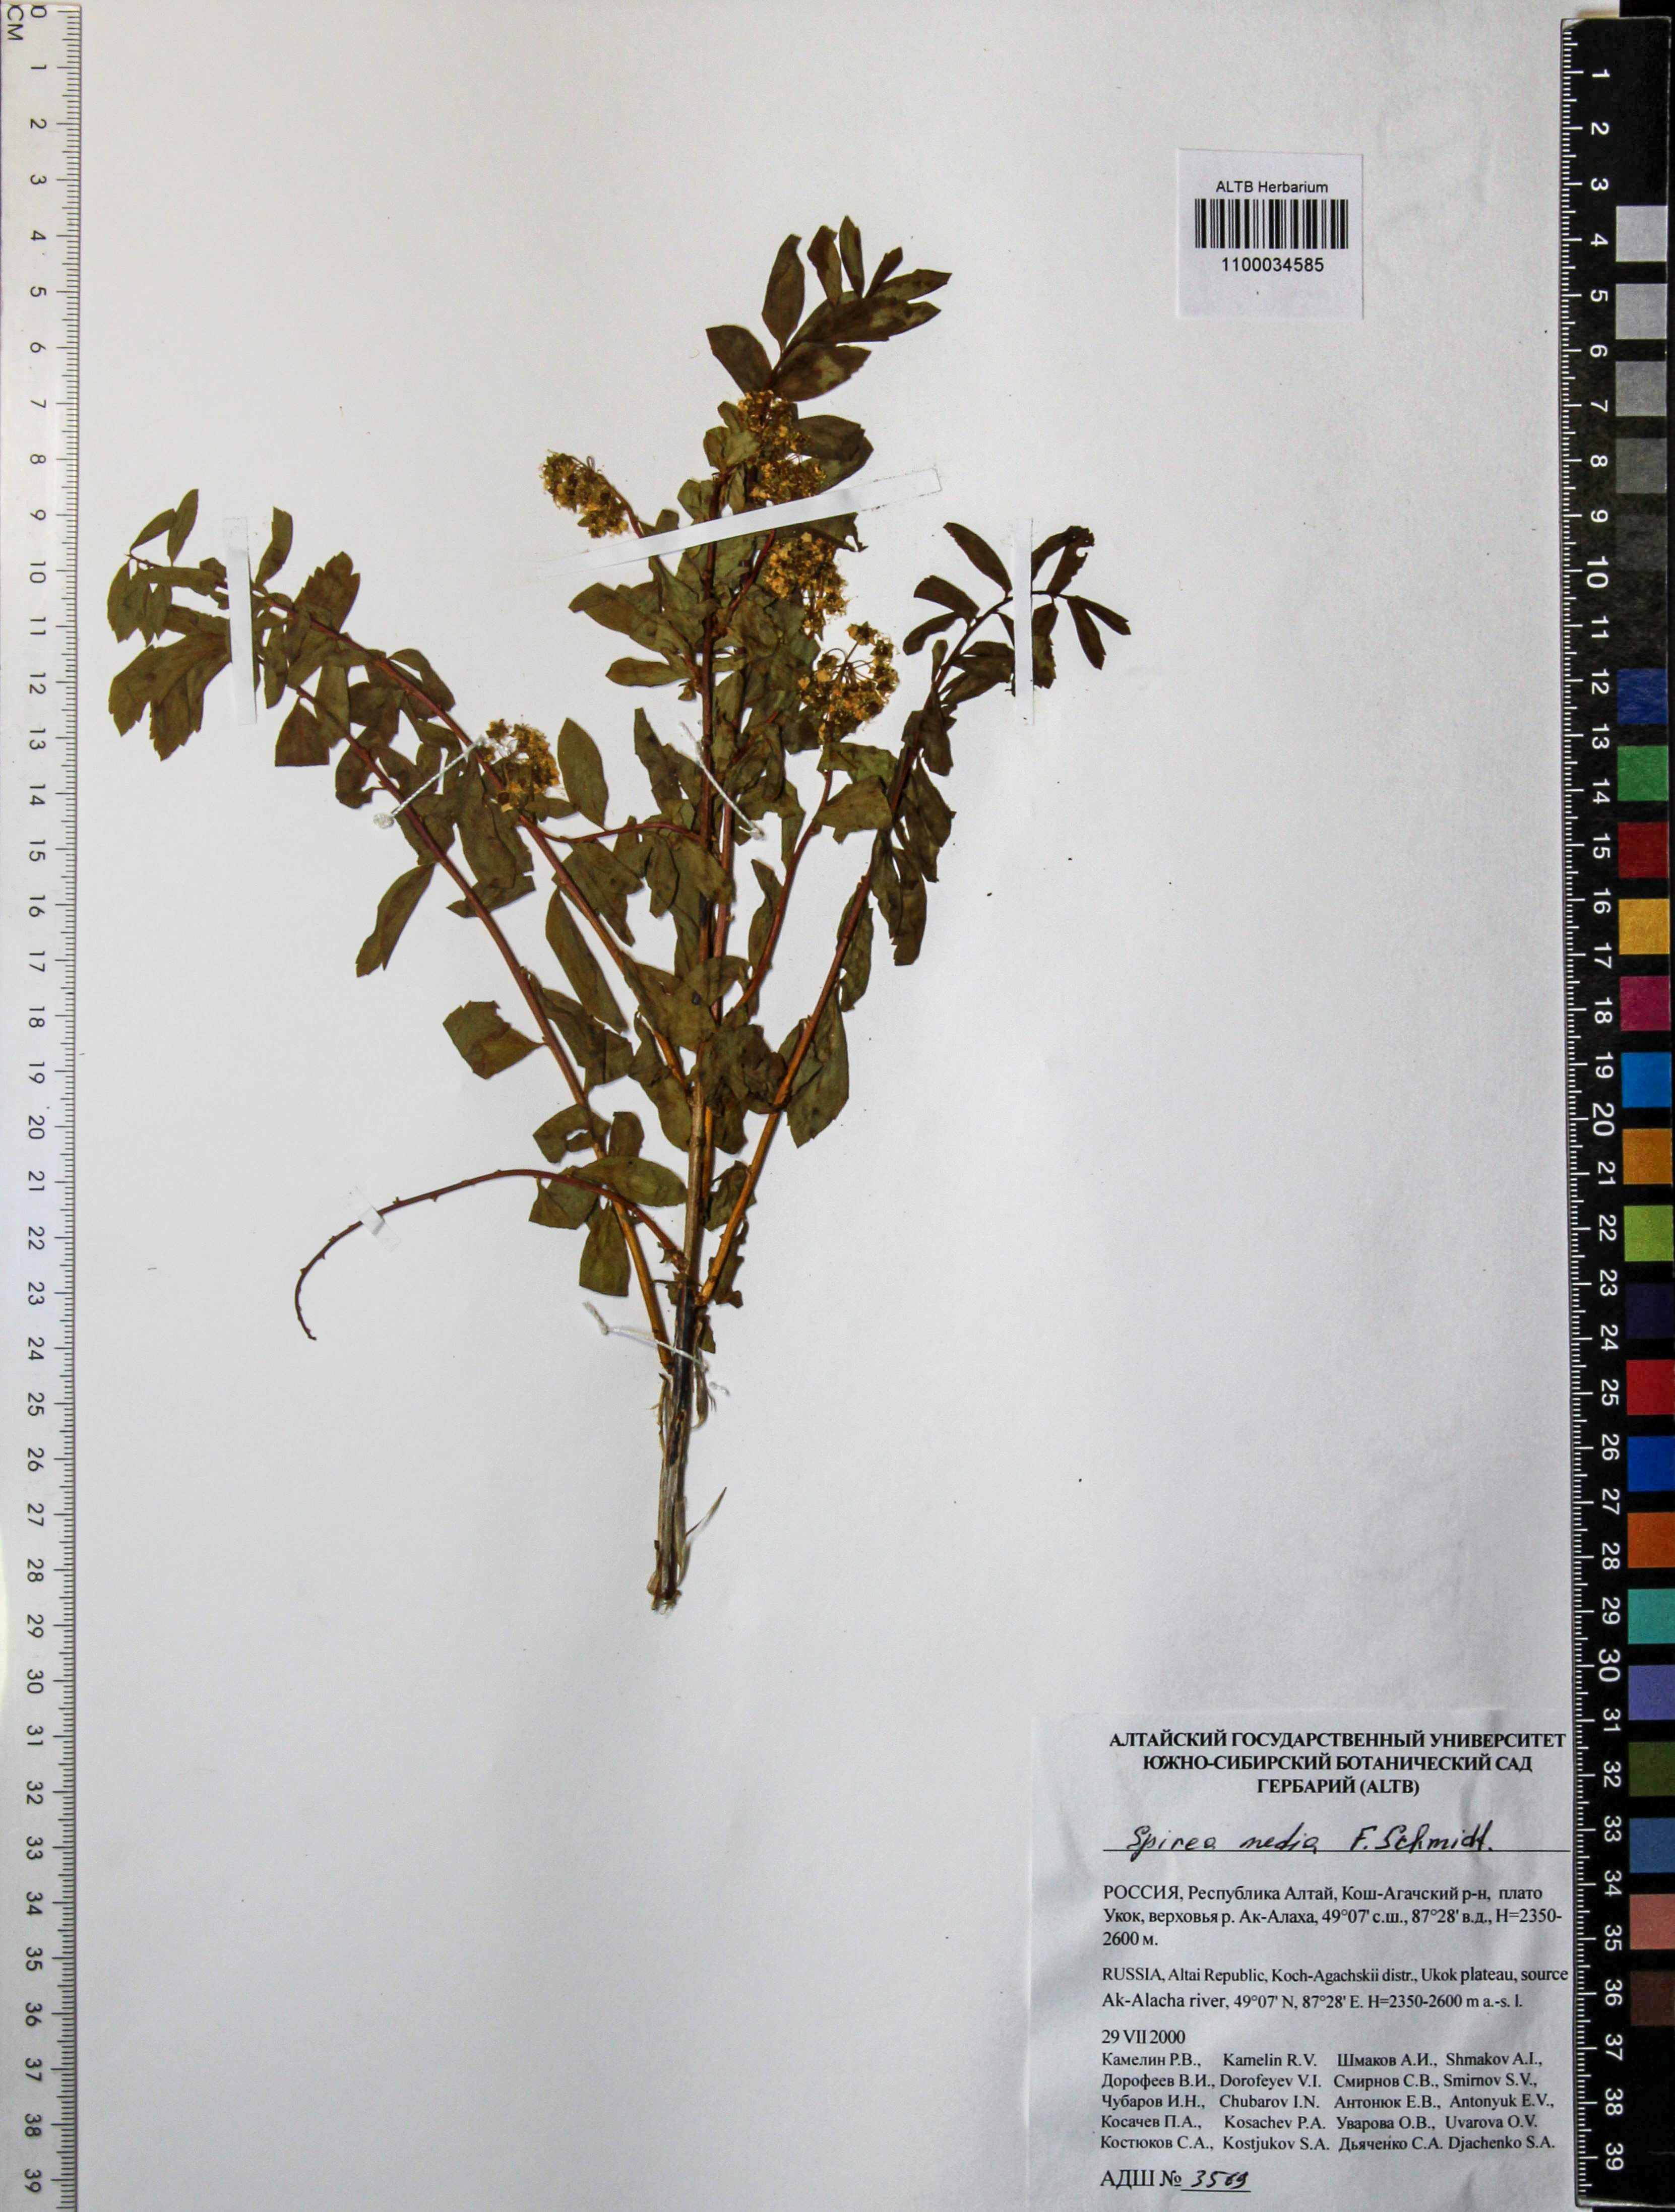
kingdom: Plantae
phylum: Tracheophyta
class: Magnoliopsida
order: Rosales
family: Rosaceae
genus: Spiraea
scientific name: Spiraea media
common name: Russian spiraea
